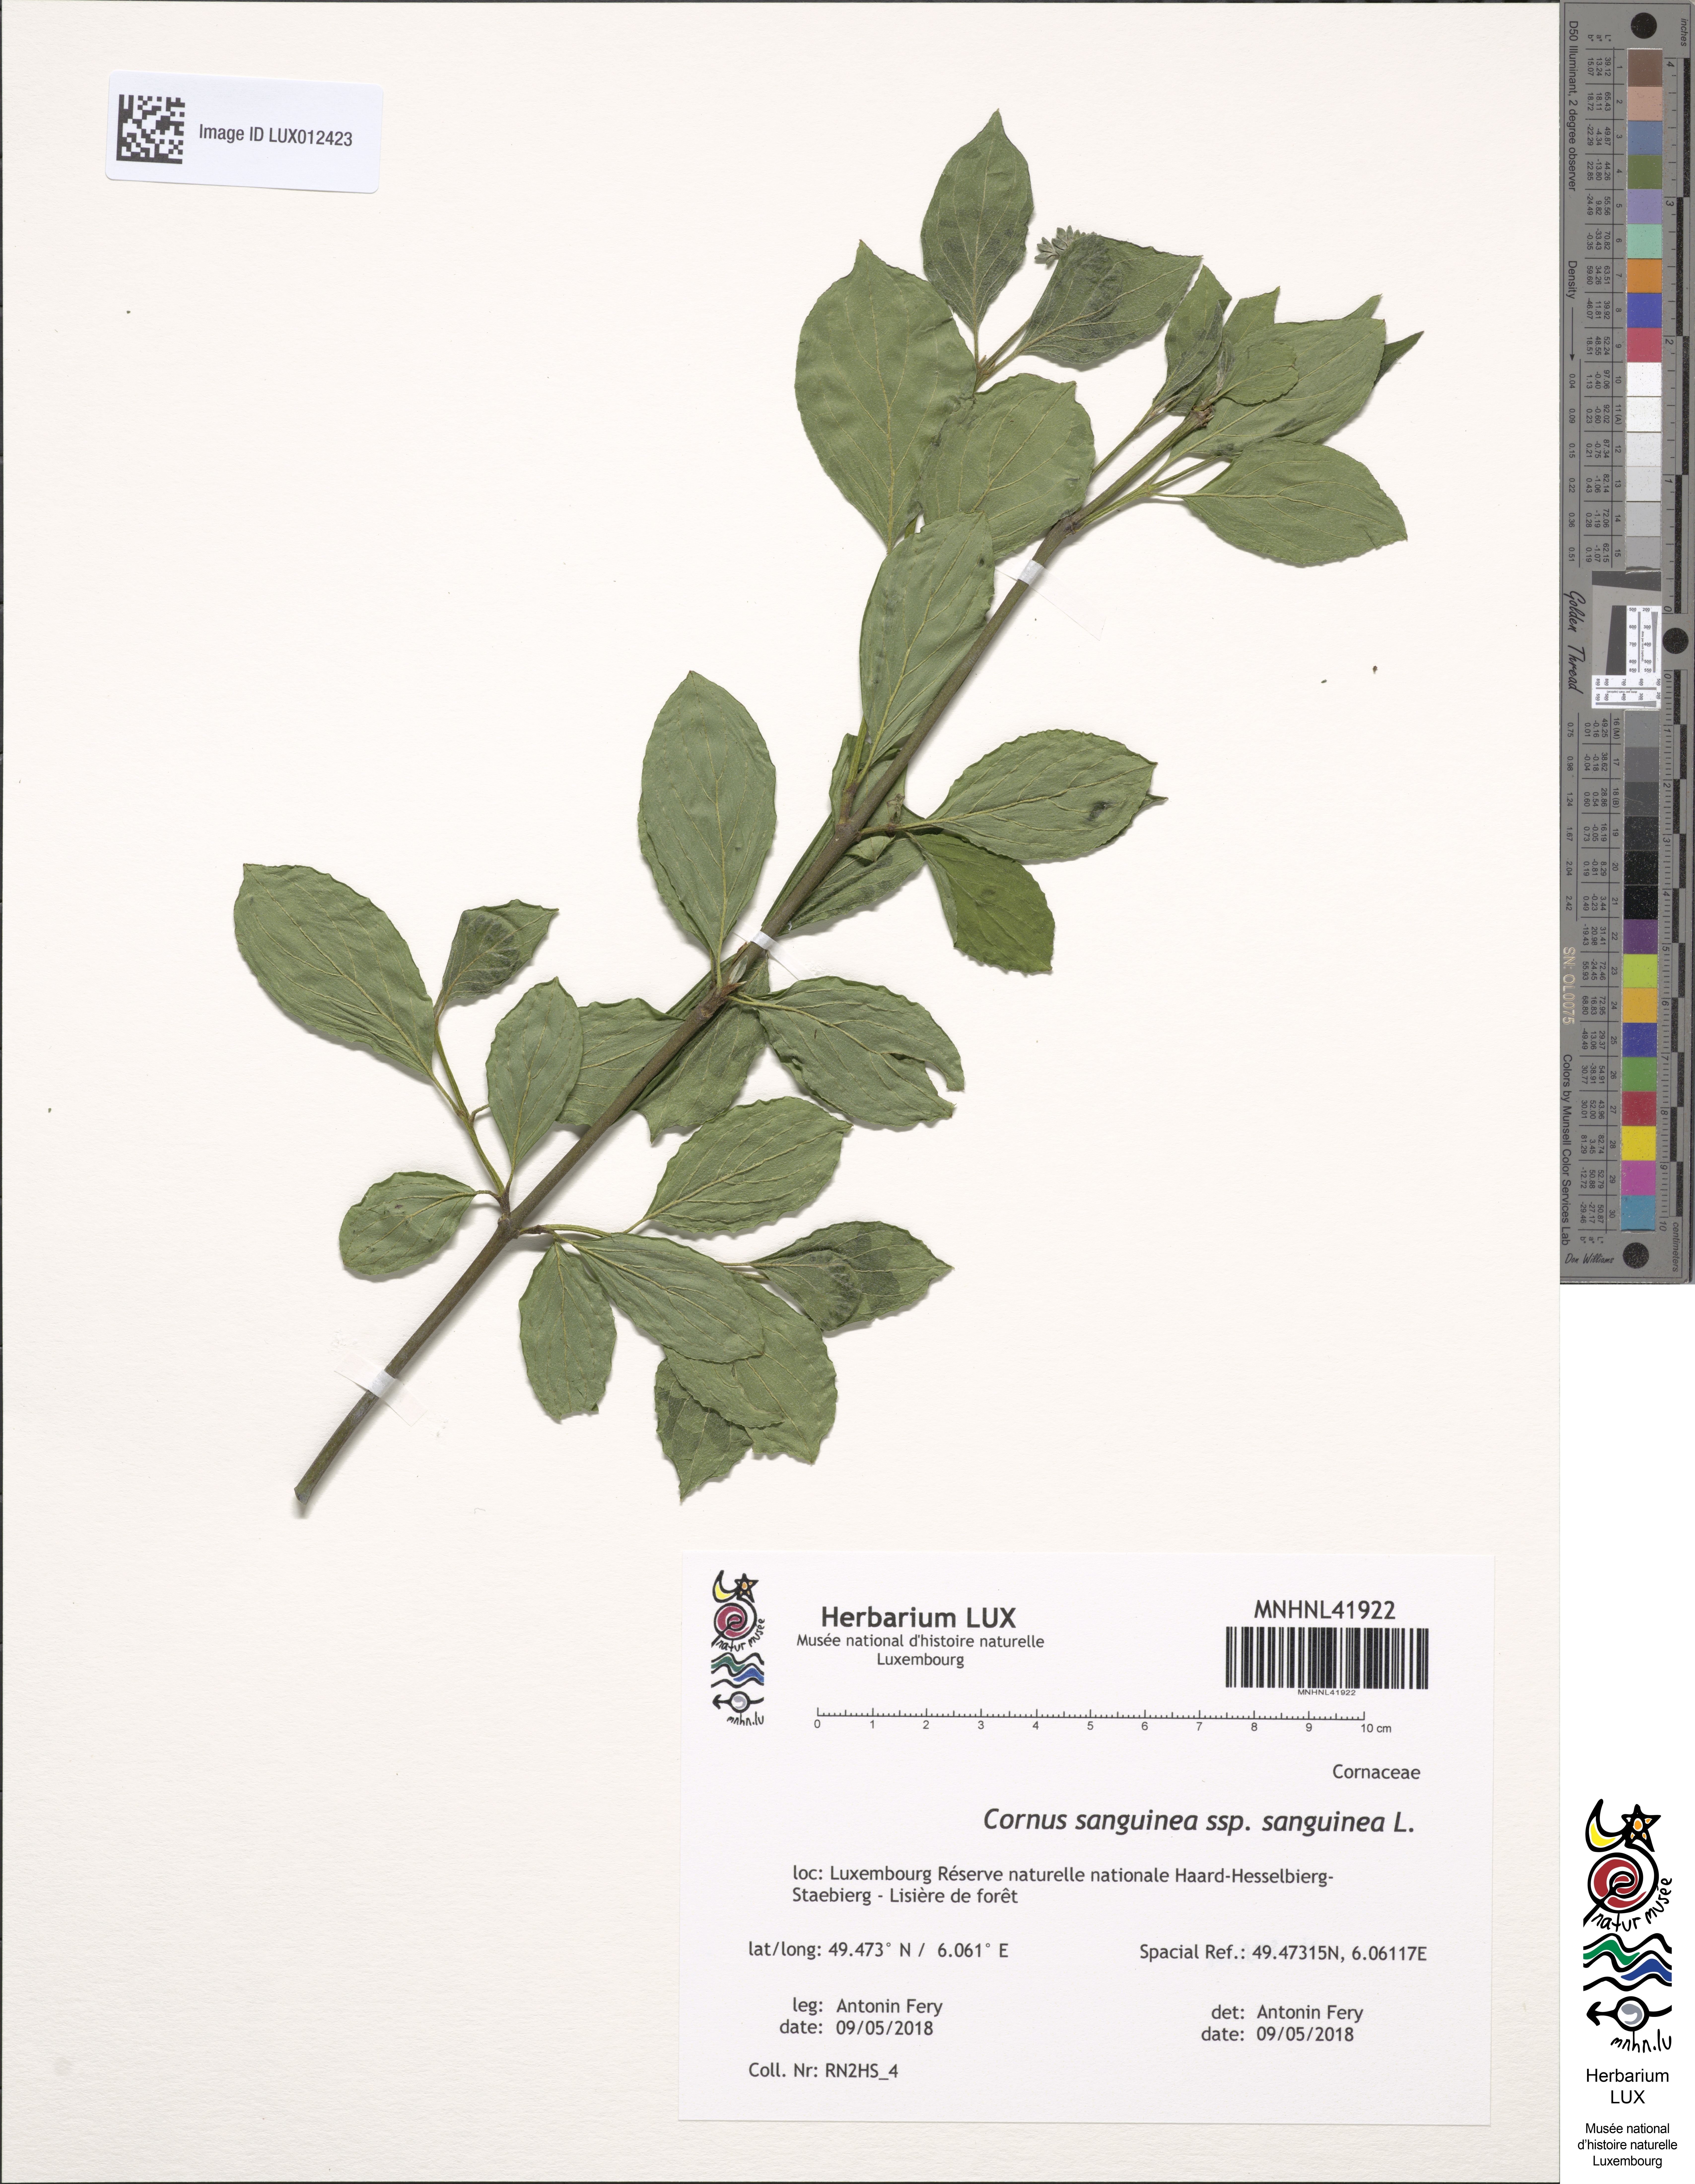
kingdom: Plantae
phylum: Tracheophyta
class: Magnoliopsida
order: Cornales
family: Cornaceae
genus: Cornus
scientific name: Cornus sanguinea
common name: Dogwood
